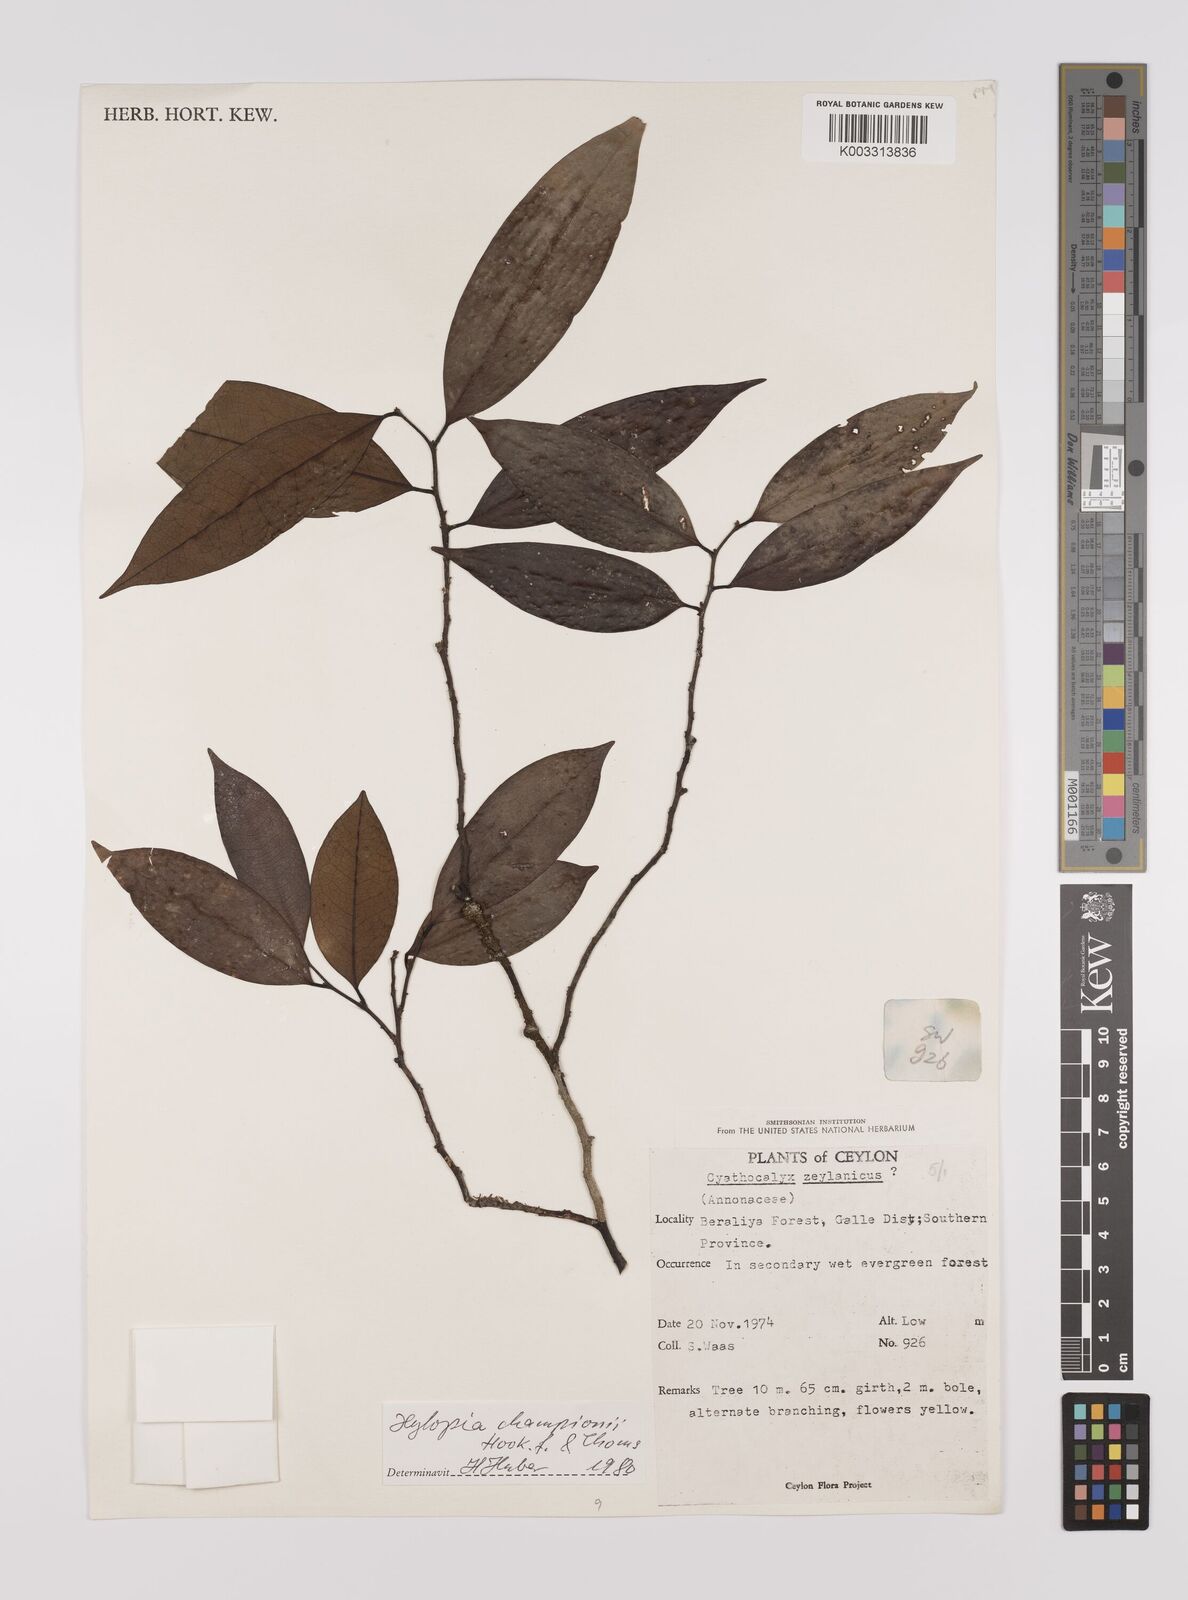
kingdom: Plantae
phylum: Tracheophyta
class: Magnoliopsida
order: Magnoliales
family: Annonaceae
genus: Xylopia
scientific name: Xylopia championii
